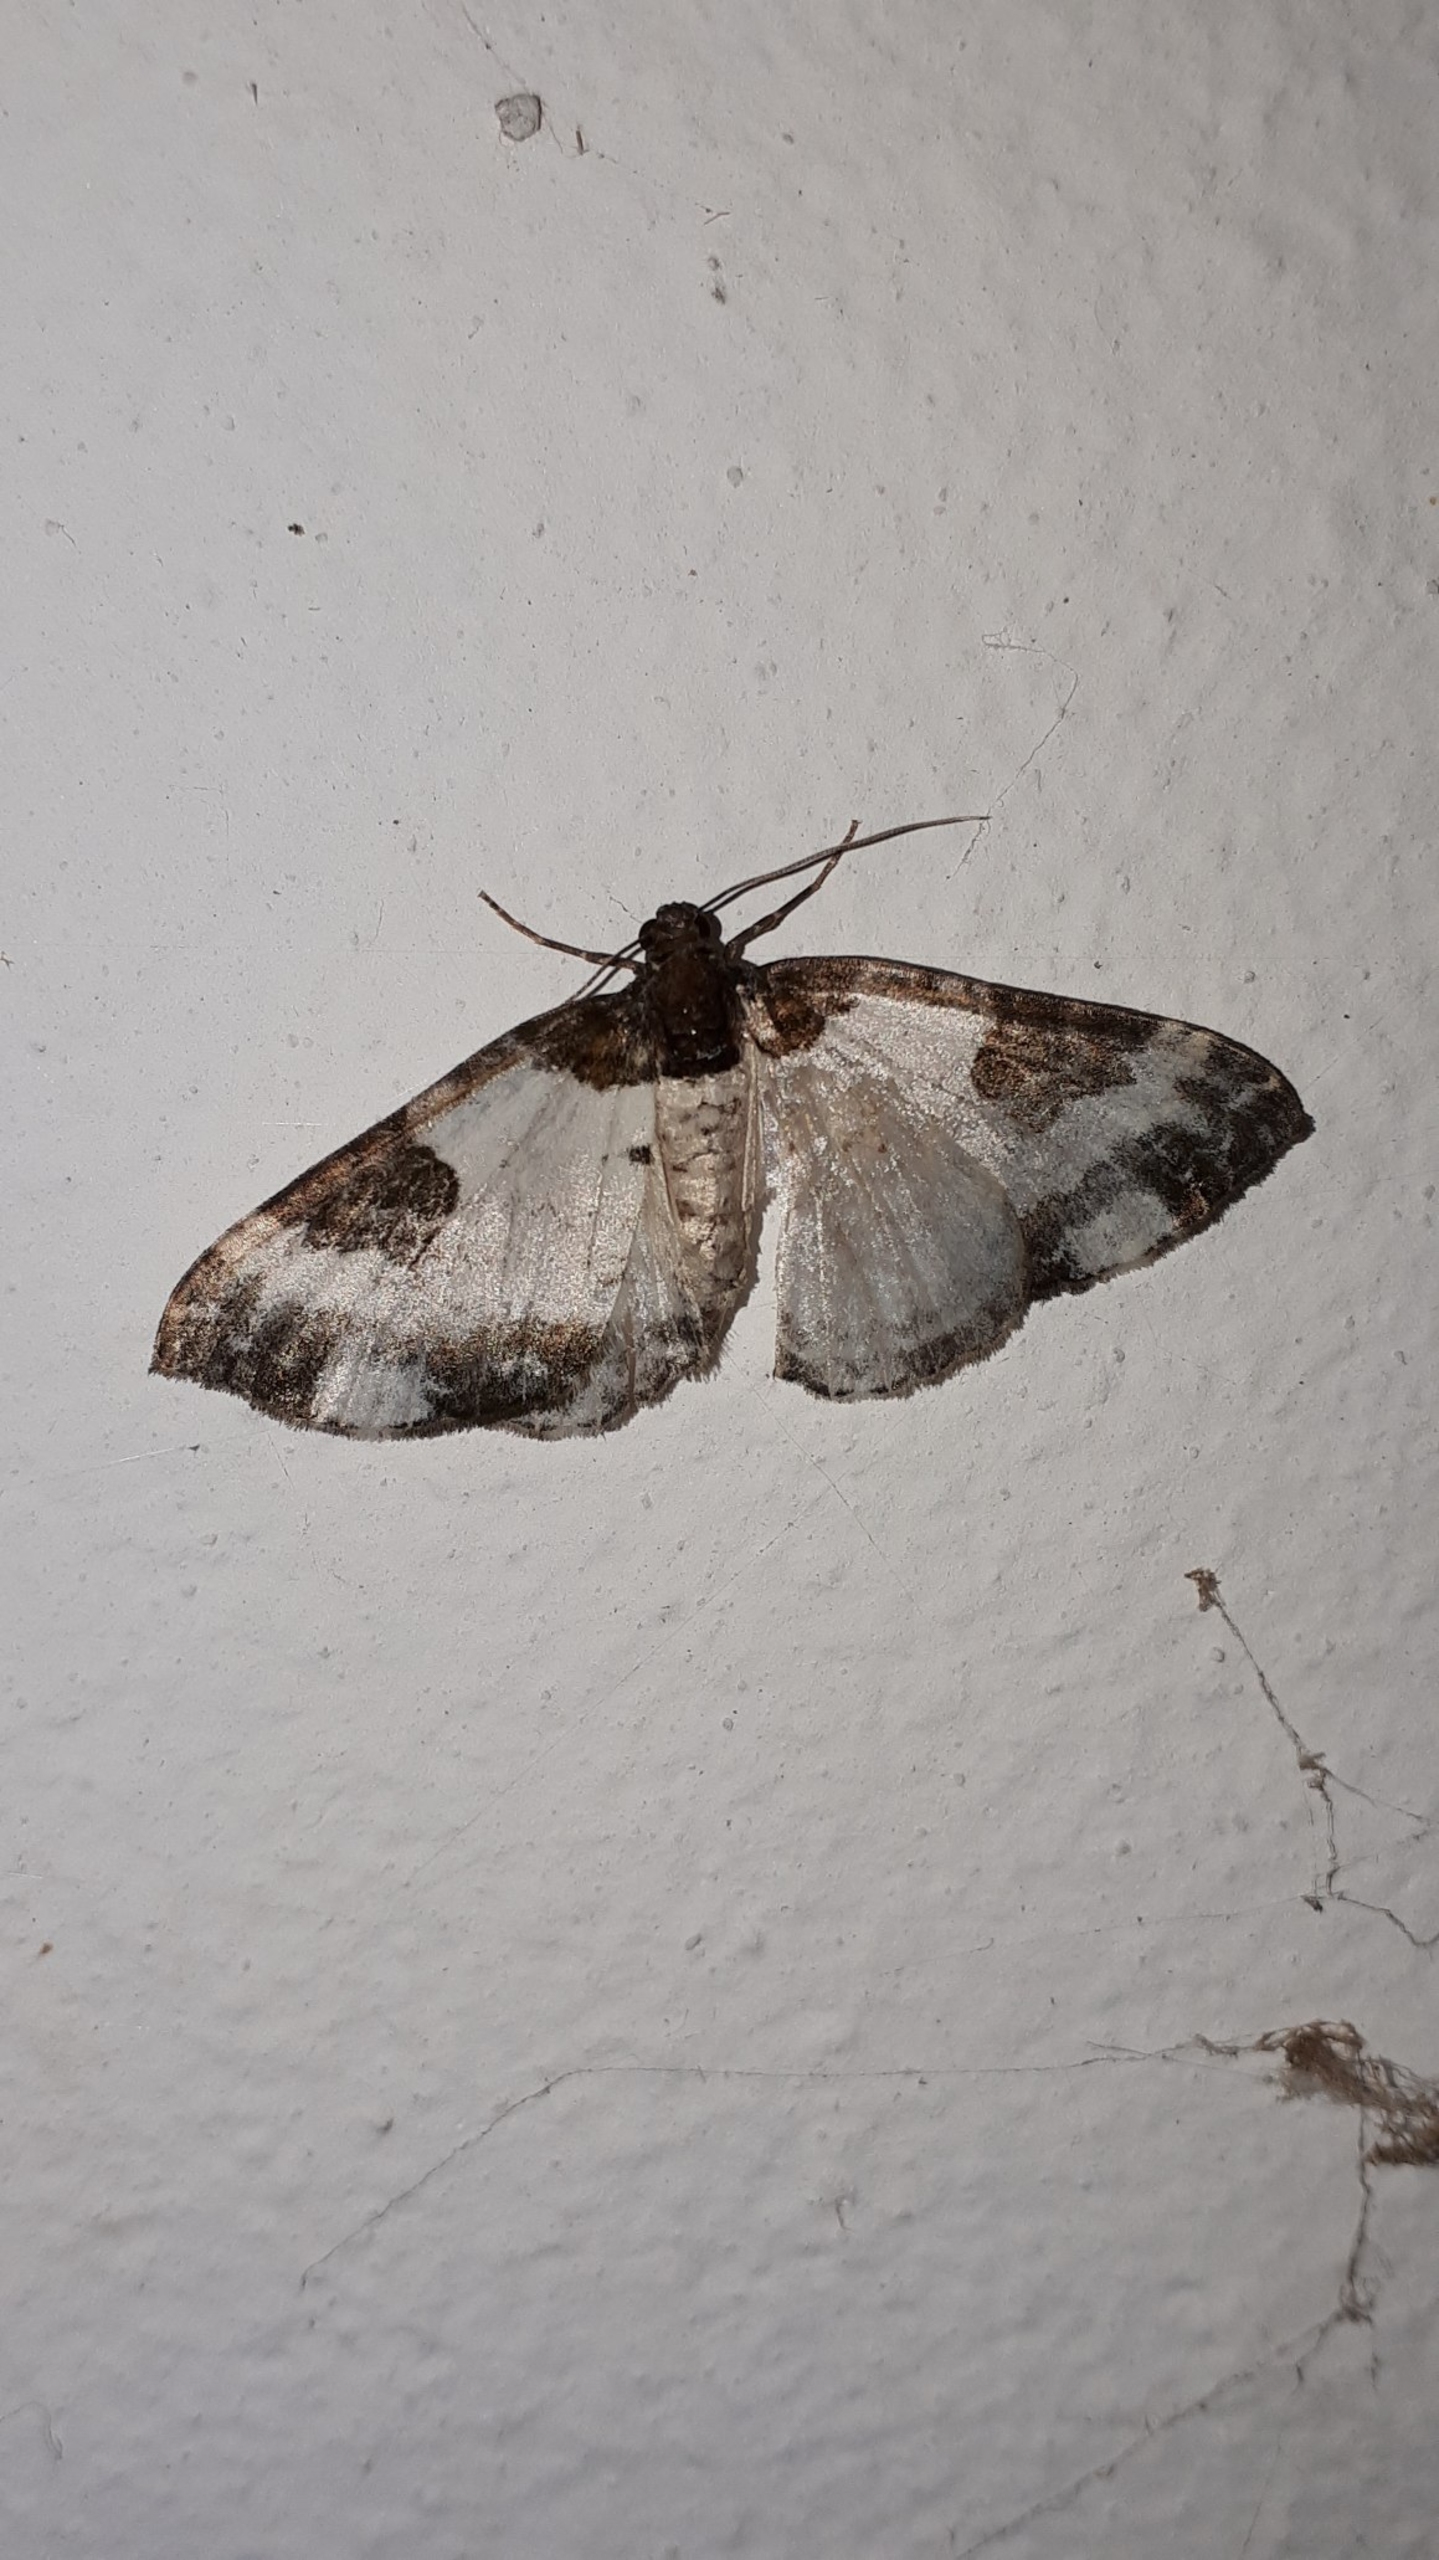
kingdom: Animalia
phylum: Arthropoda
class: Insecta
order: Lepidoptera
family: Geometridae
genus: Melanthia
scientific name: Melanthia procellata
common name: Klematismåler
